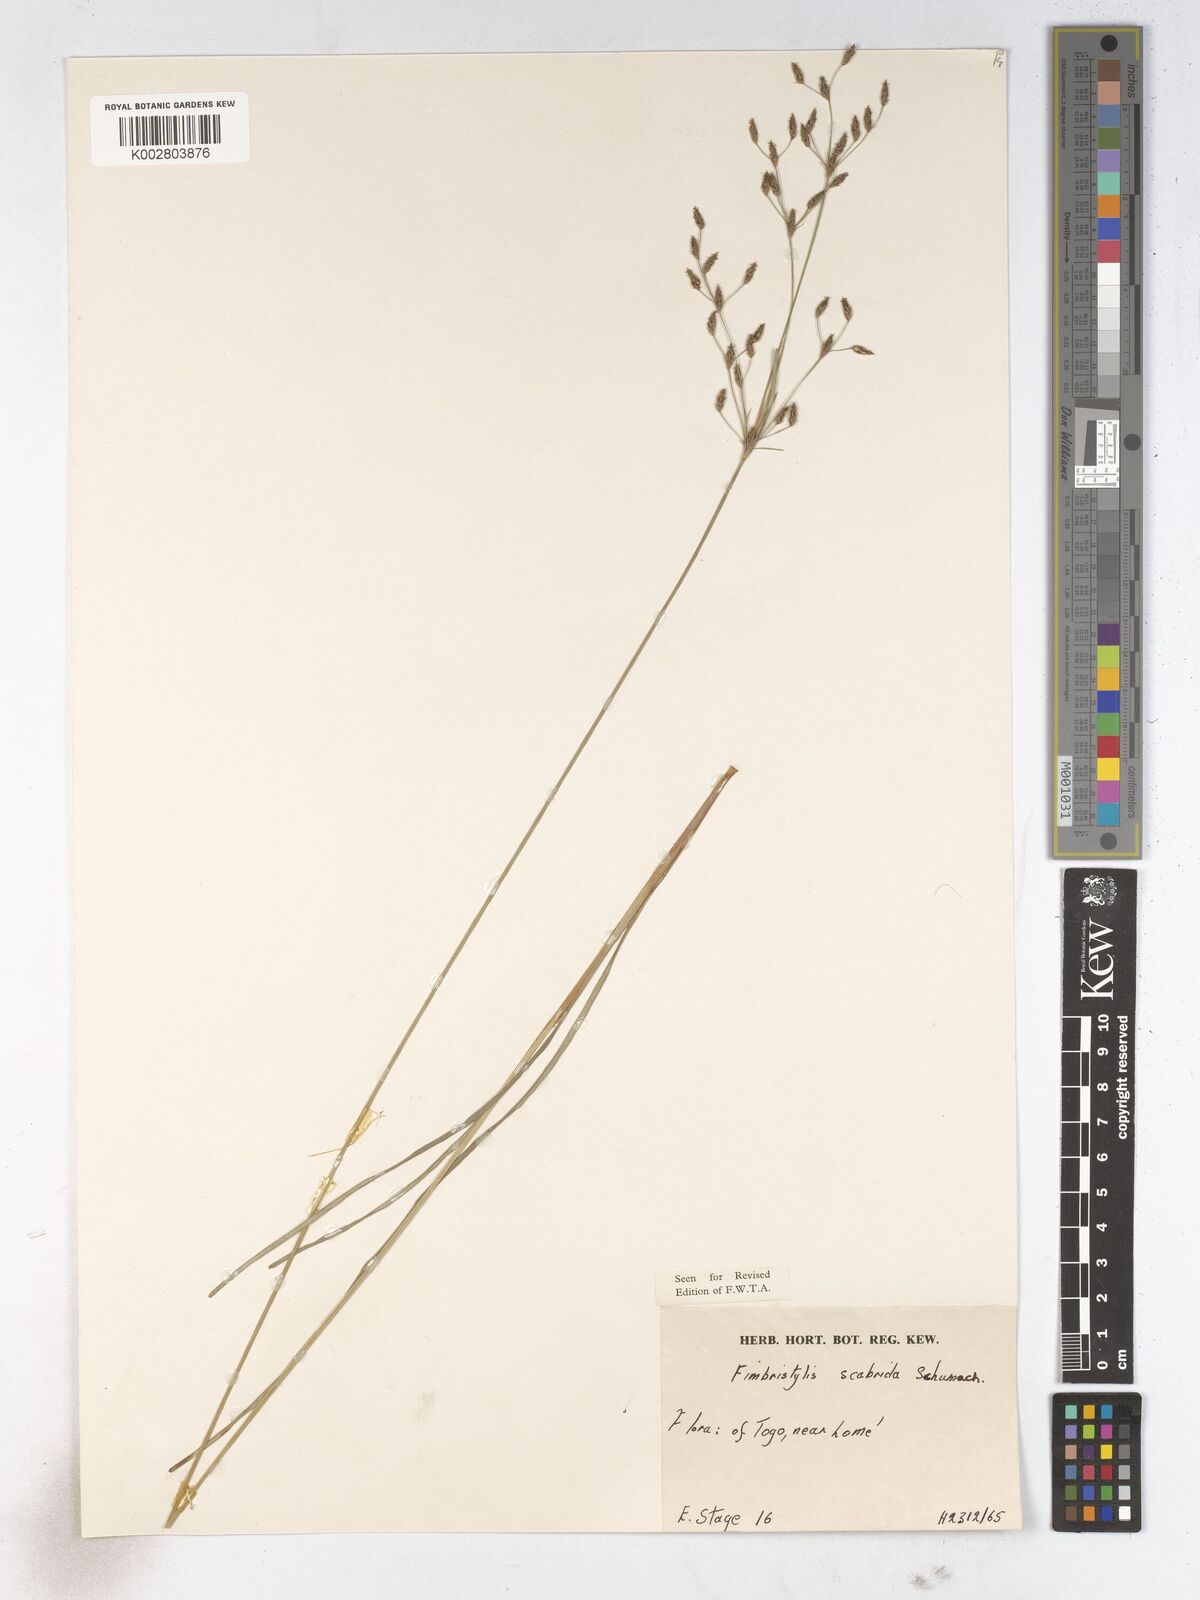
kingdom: Plantae
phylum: Tracheophyta
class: Liliopsida
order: Poales
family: Cyperaceae
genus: Fimbristylis
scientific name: Fimbristylis scabrida
